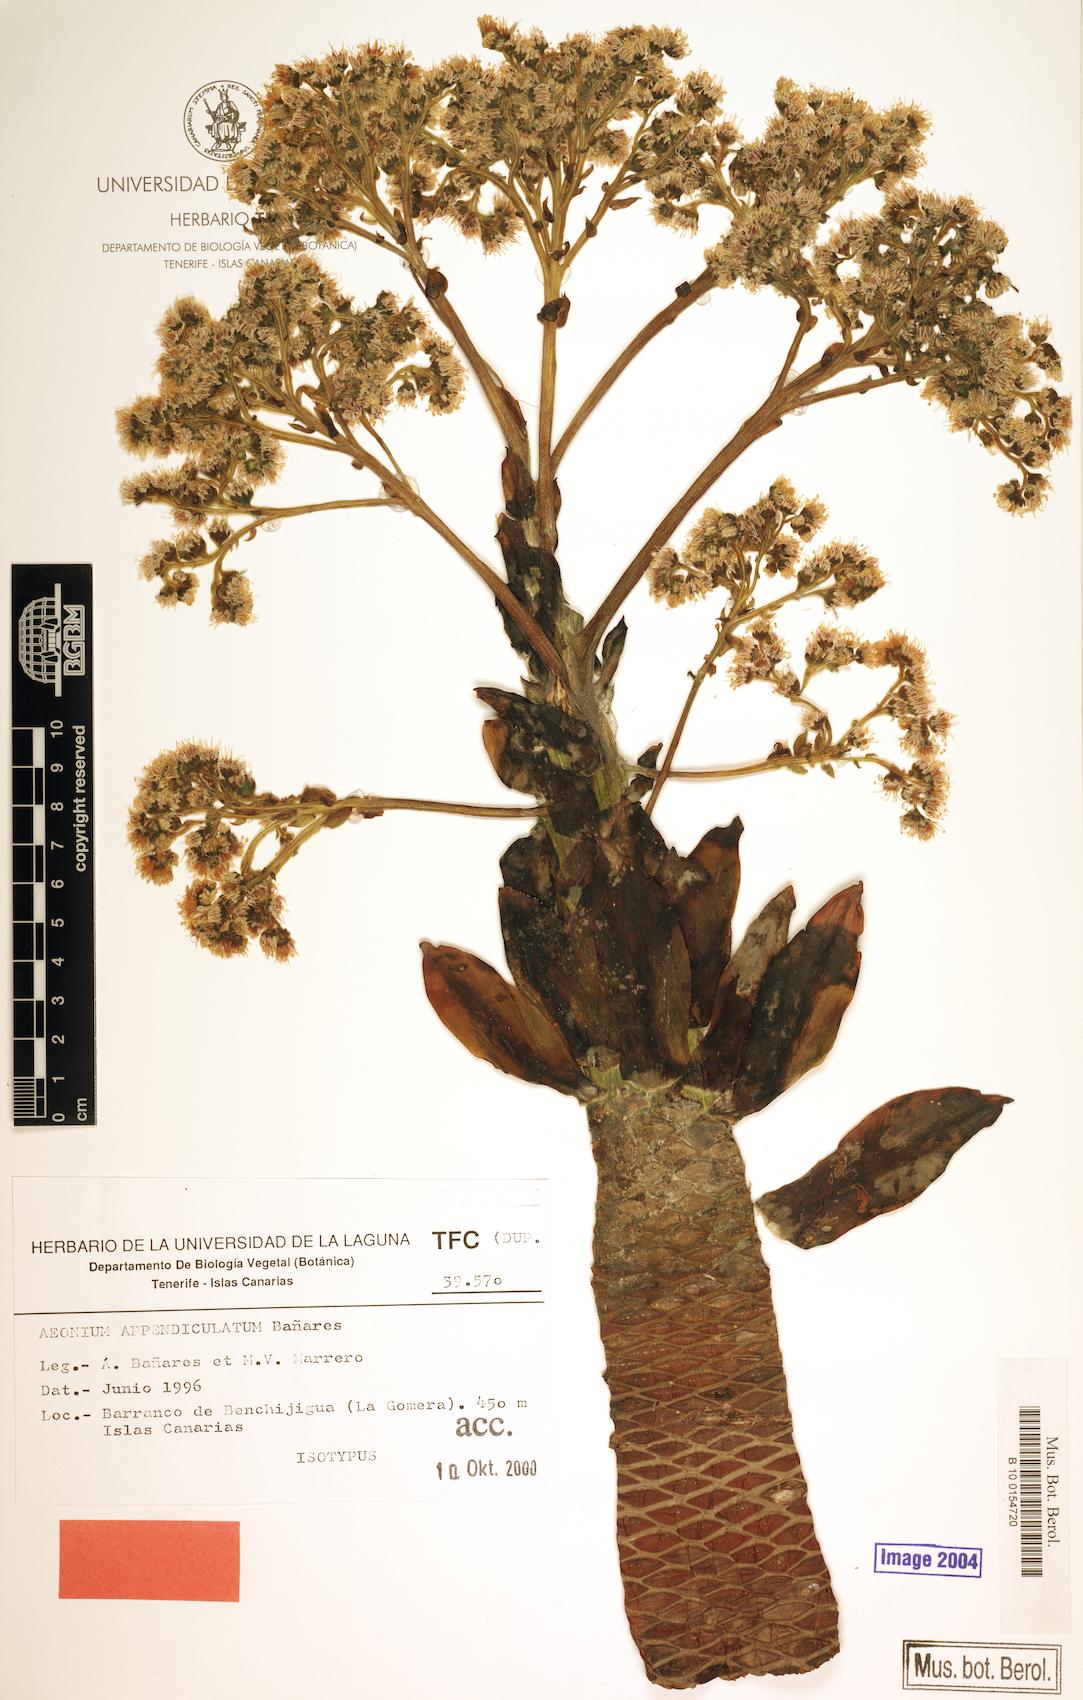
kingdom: Plantae
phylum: Tracheophyta
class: Magnoliopsida
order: Saxifragales
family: Crassulaceae
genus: Aeonium
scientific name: Aeonium appendiculatum
